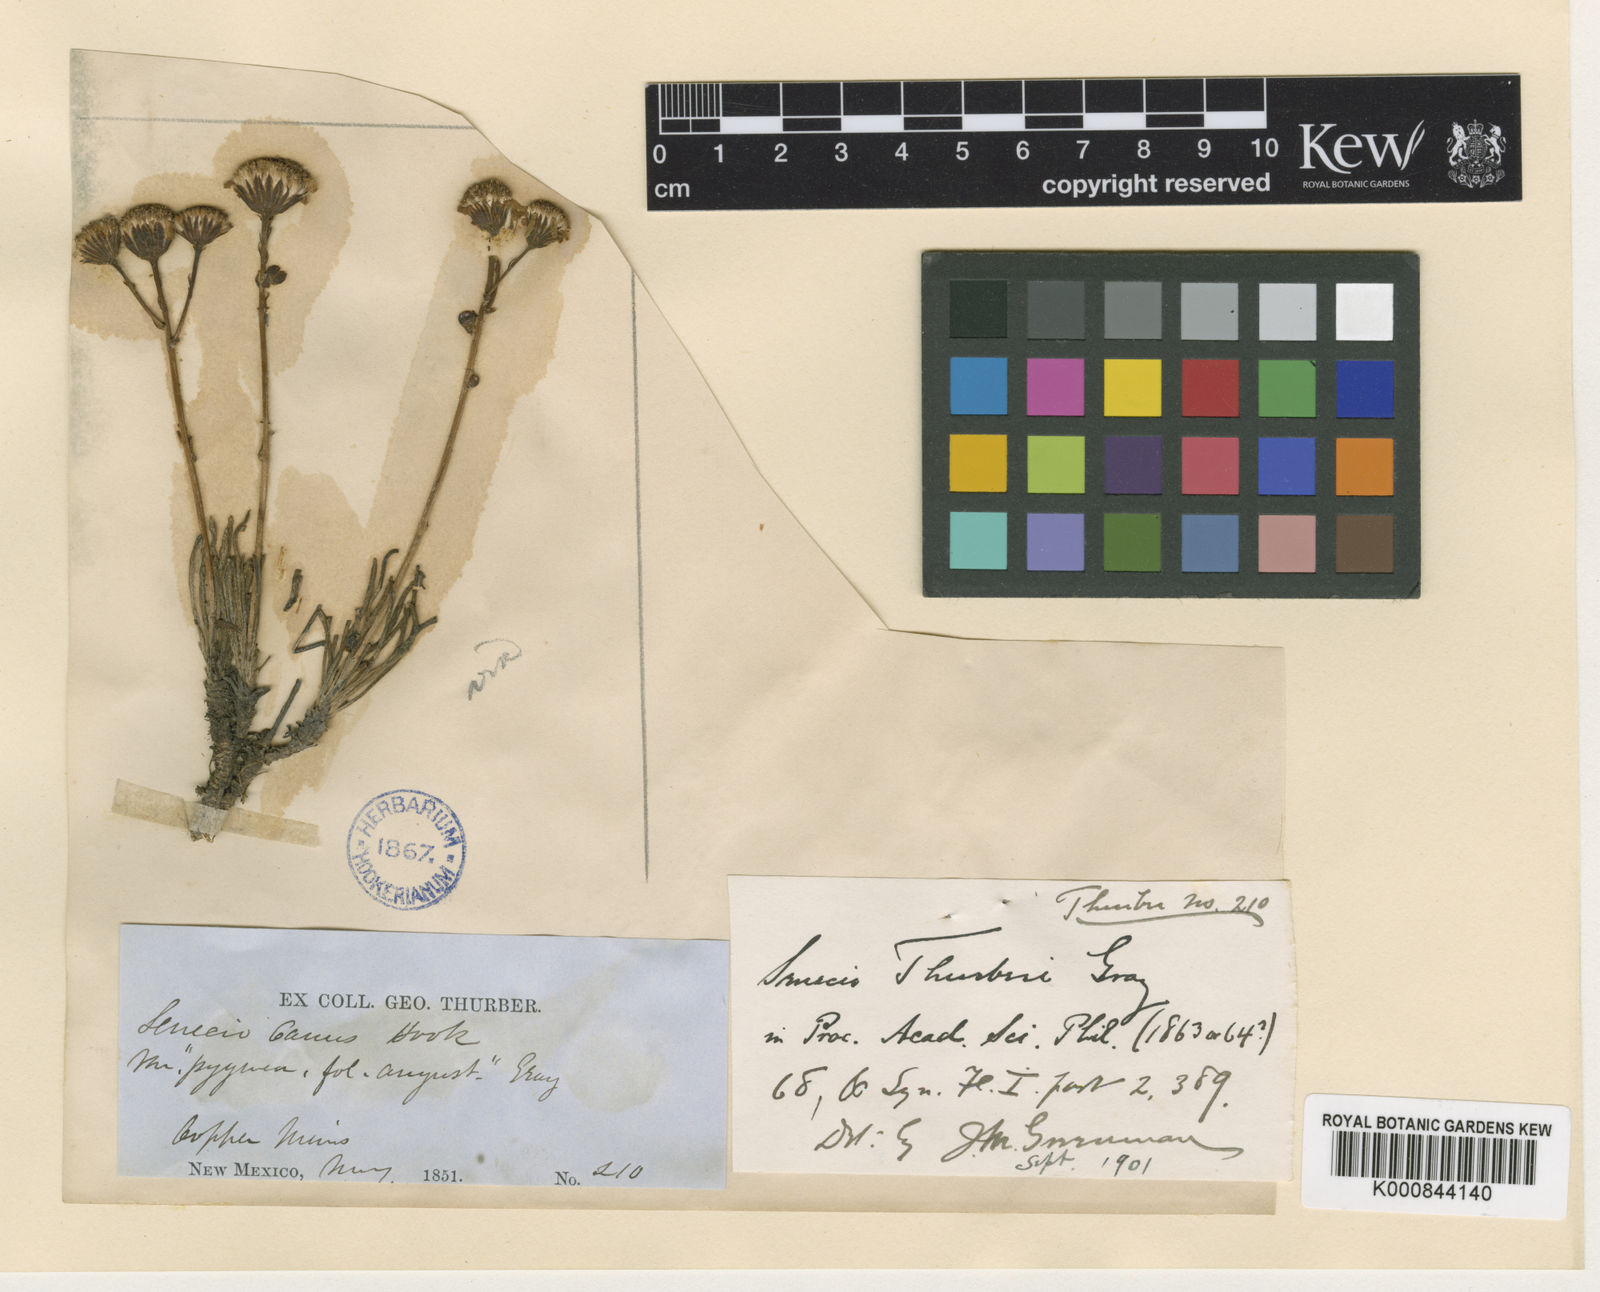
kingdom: Plantae
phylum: Tracheophyta
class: Magnoliopsida
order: Asterales
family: Asteraceae
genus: Packera
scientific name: Packera thurberi
